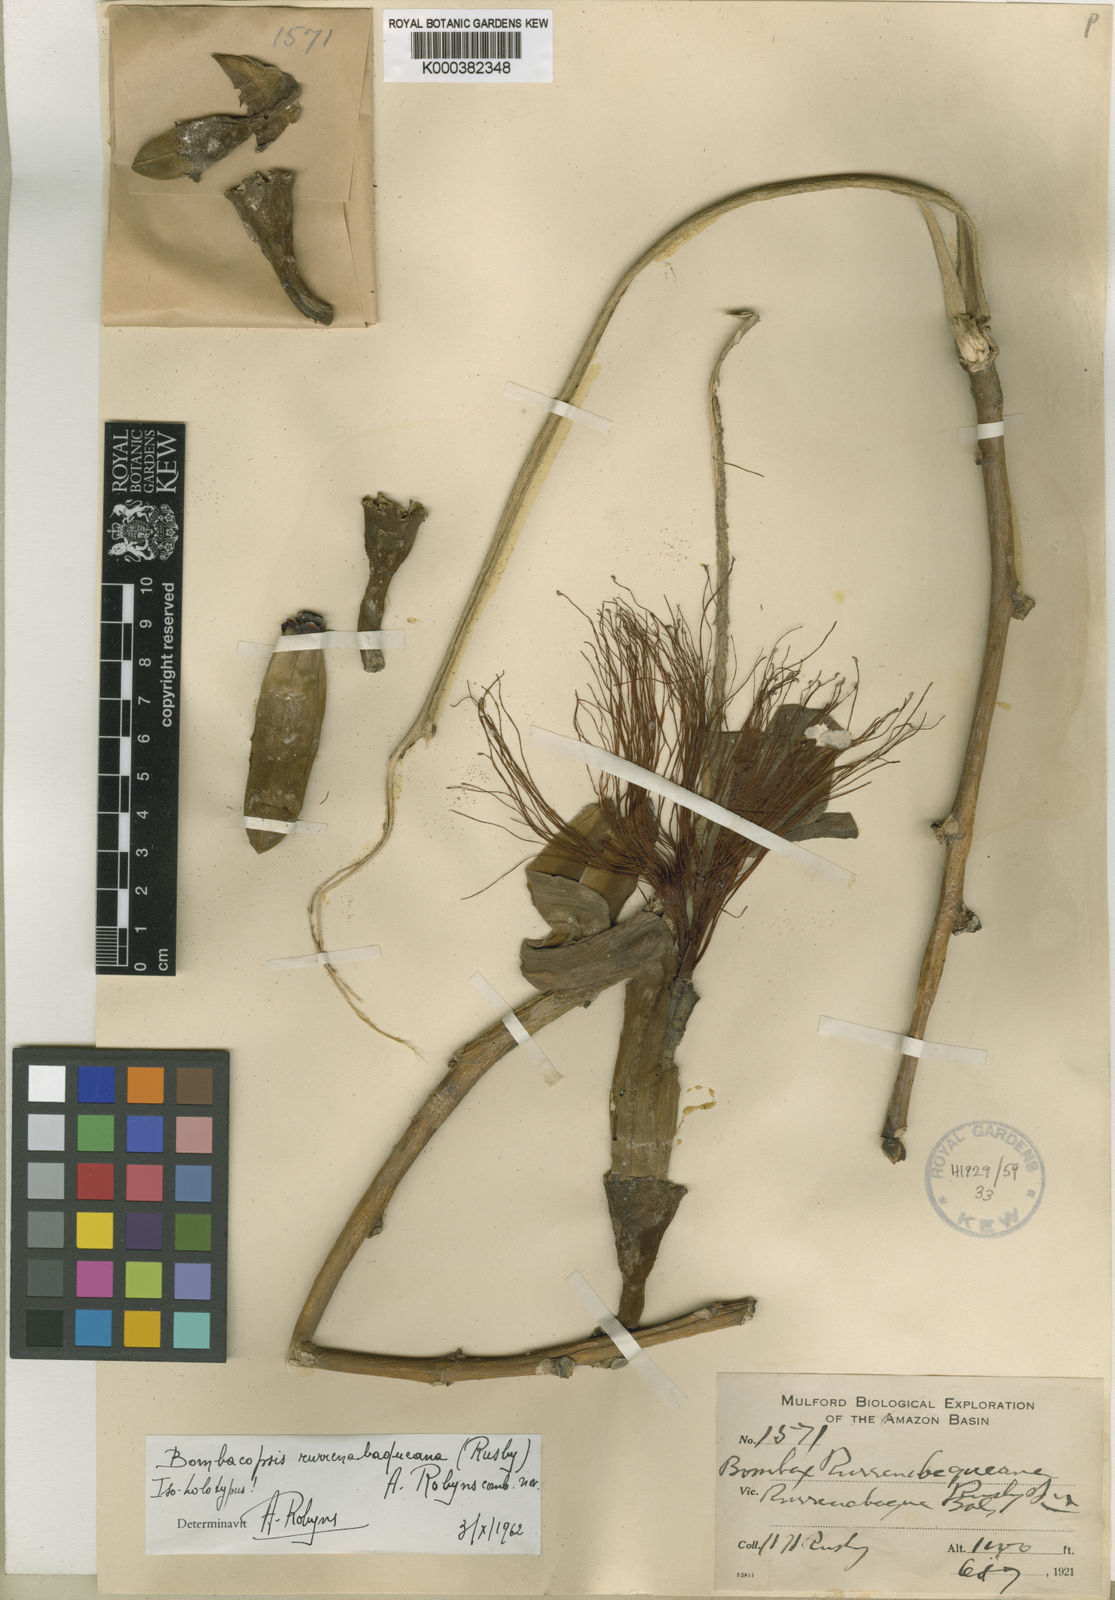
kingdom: Plantae
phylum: Tracheophyta
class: Magnoliopsida
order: Malvales
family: Malvaceae
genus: Pachira
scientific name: Pachira rurrenabaqueana
